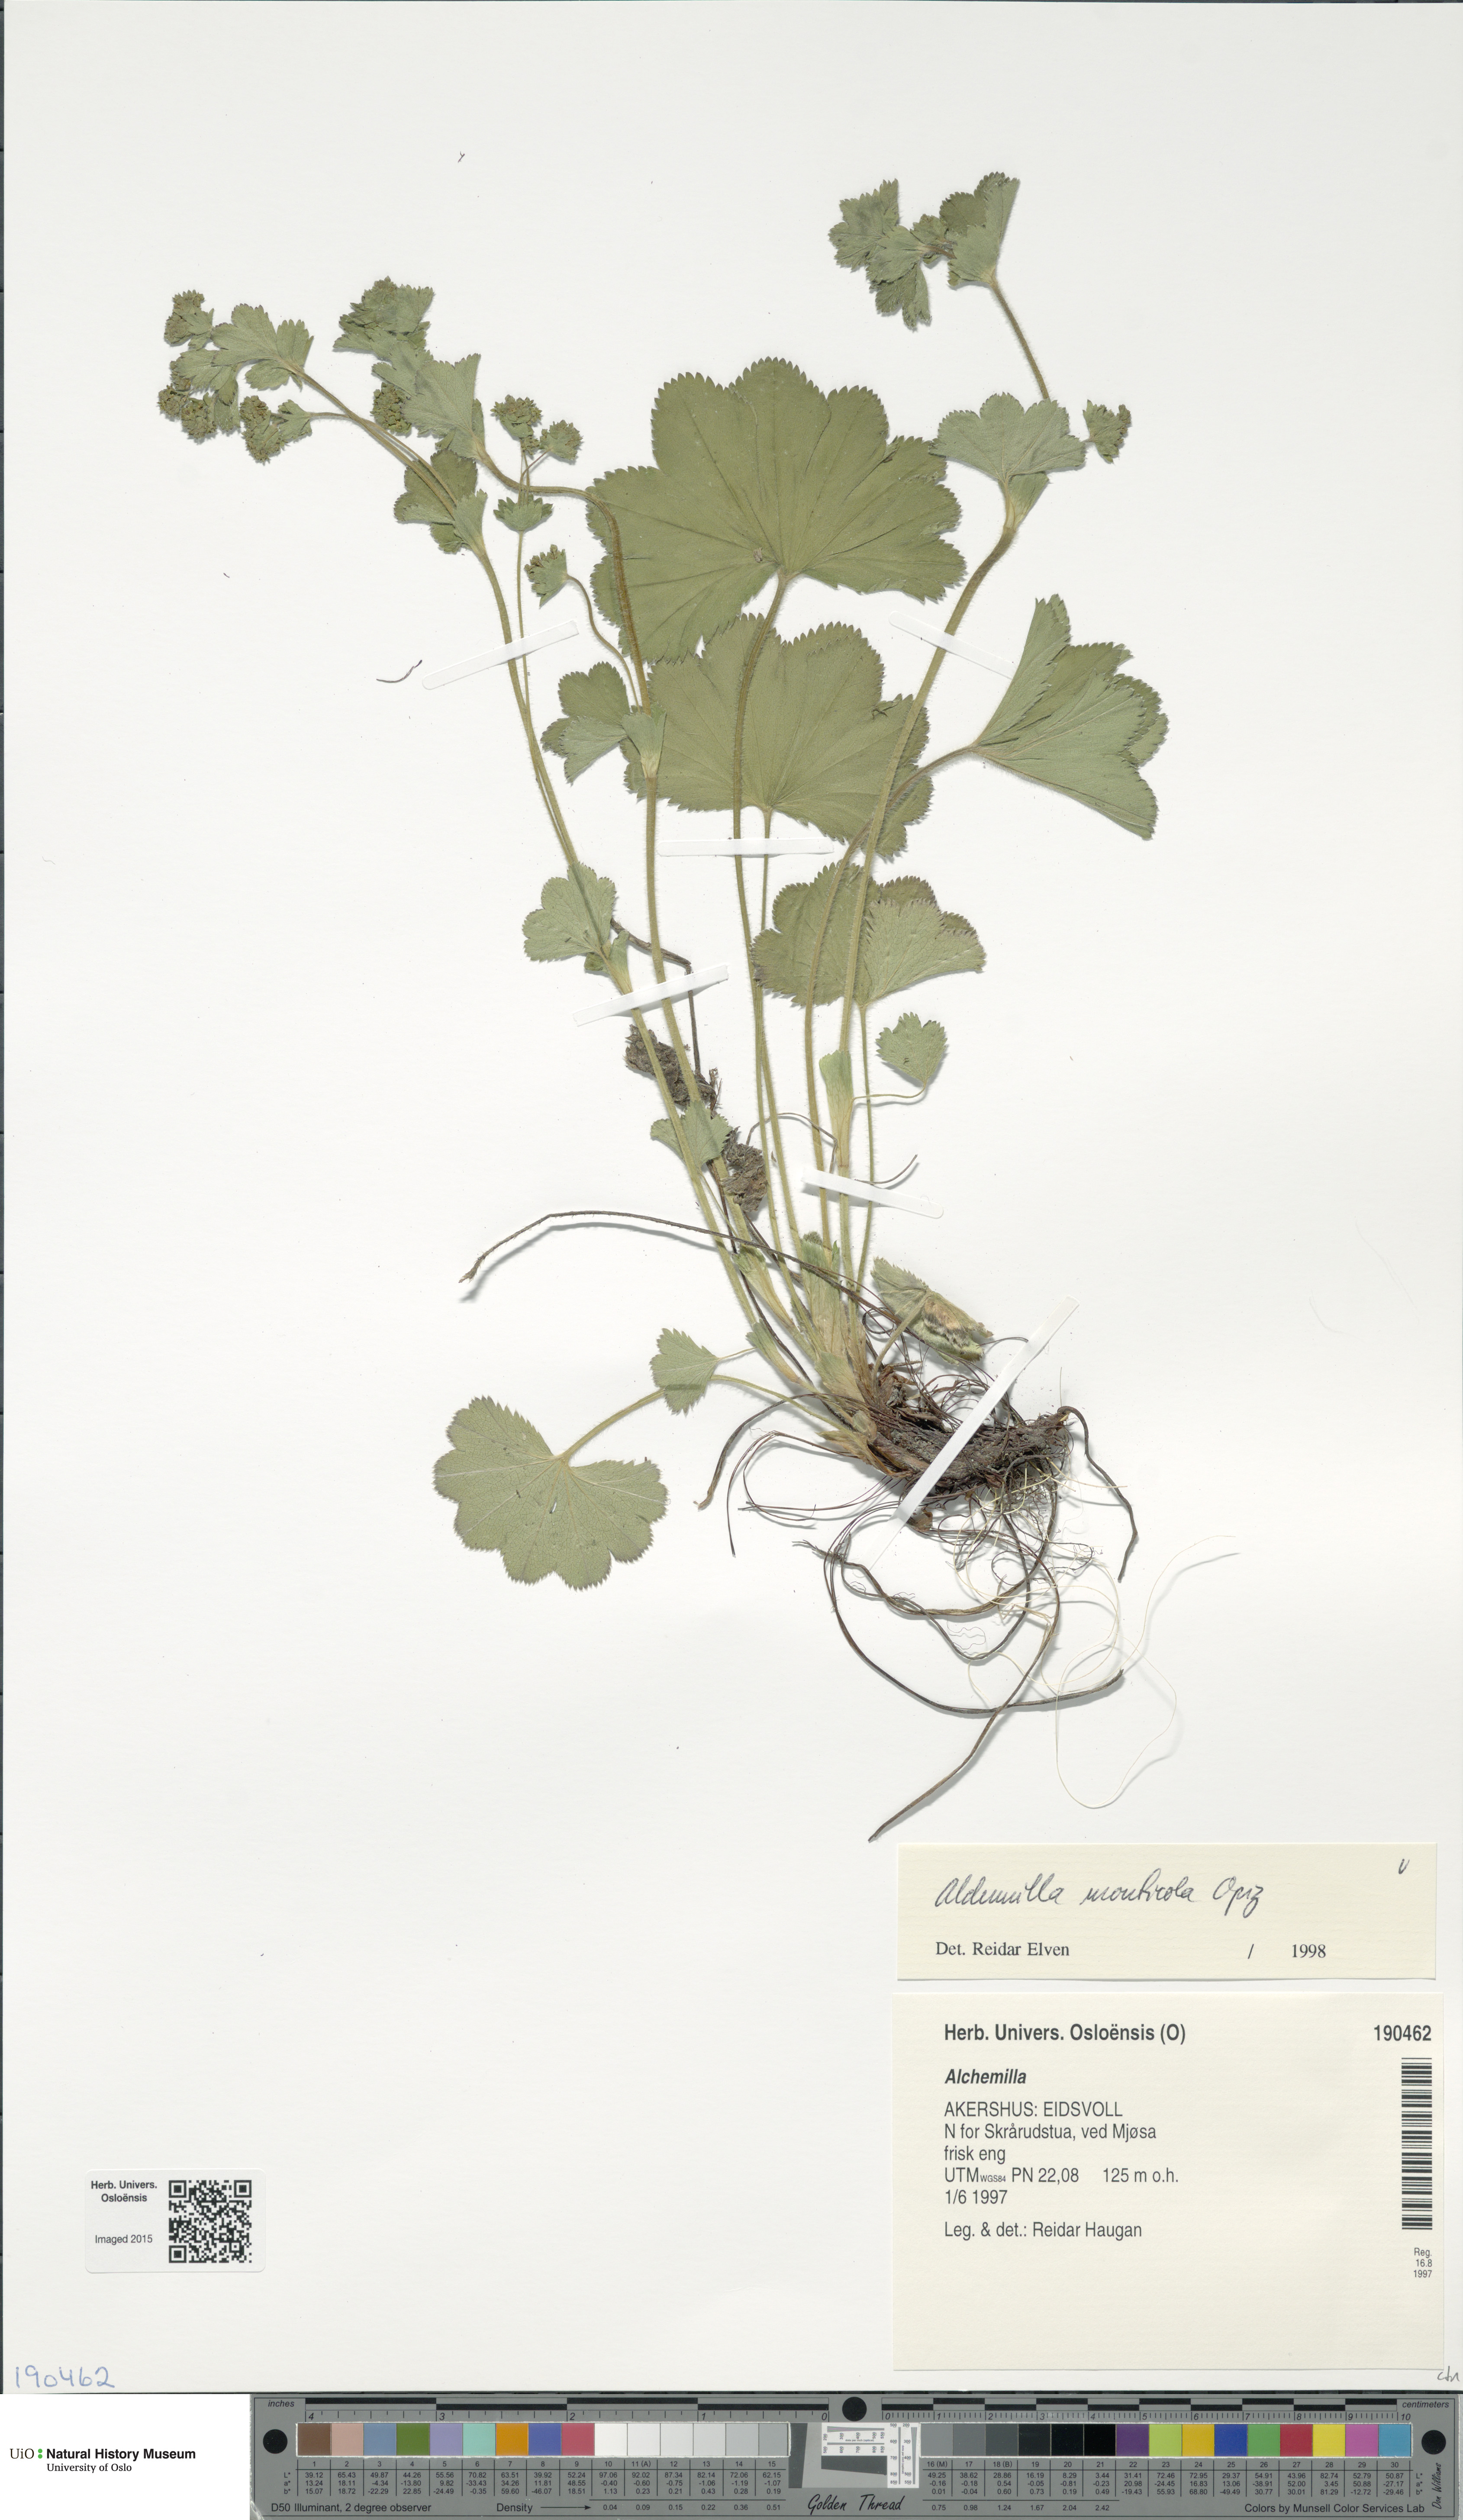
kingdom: Plantae
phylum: Tracheophyta
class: Magnoliopsida
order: Rosales
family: Rosaceae
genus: Alchemilla
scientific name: Alchemilla monticola
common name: Hairy lady's mantle
